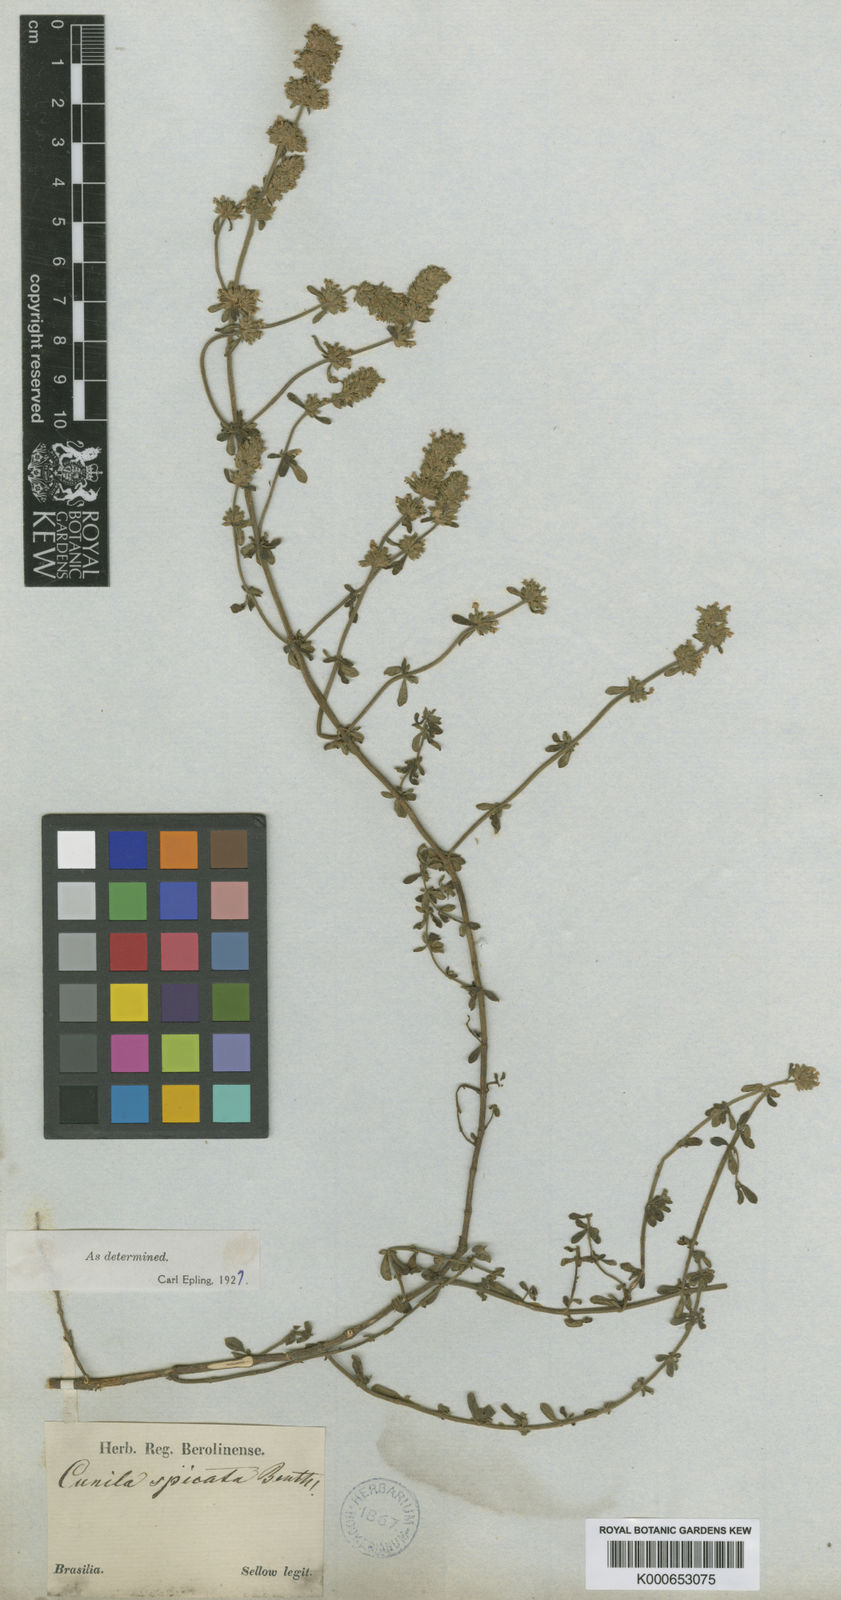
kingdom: Plantae
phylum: Tracheophyta
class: Magnoliopsida
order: Lamiales
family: Lamiaceae
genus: Cunila
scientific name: Cunila spicata
